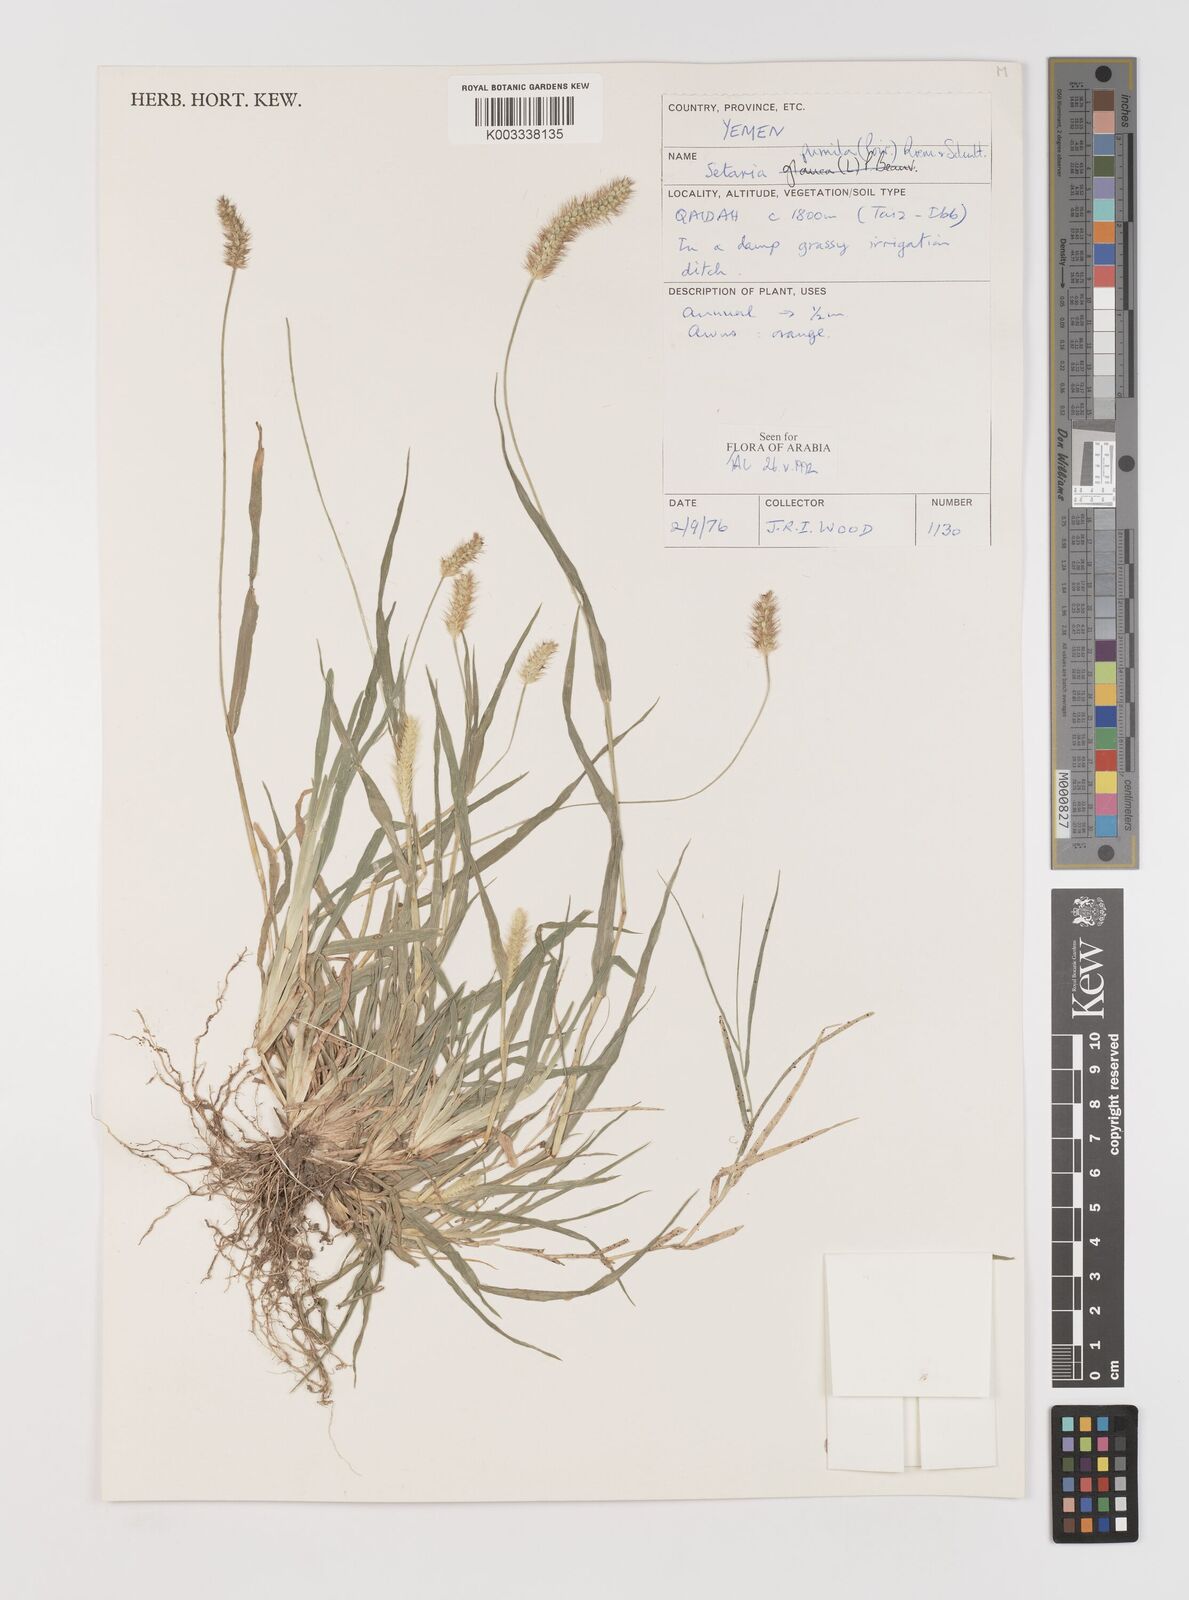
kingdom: Plantae
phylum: Tracheophyta
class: Liliopsida
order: Poales
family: Poaceae
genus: Setaria
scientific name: Setaria pumila
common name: Yellow bristle-grass
